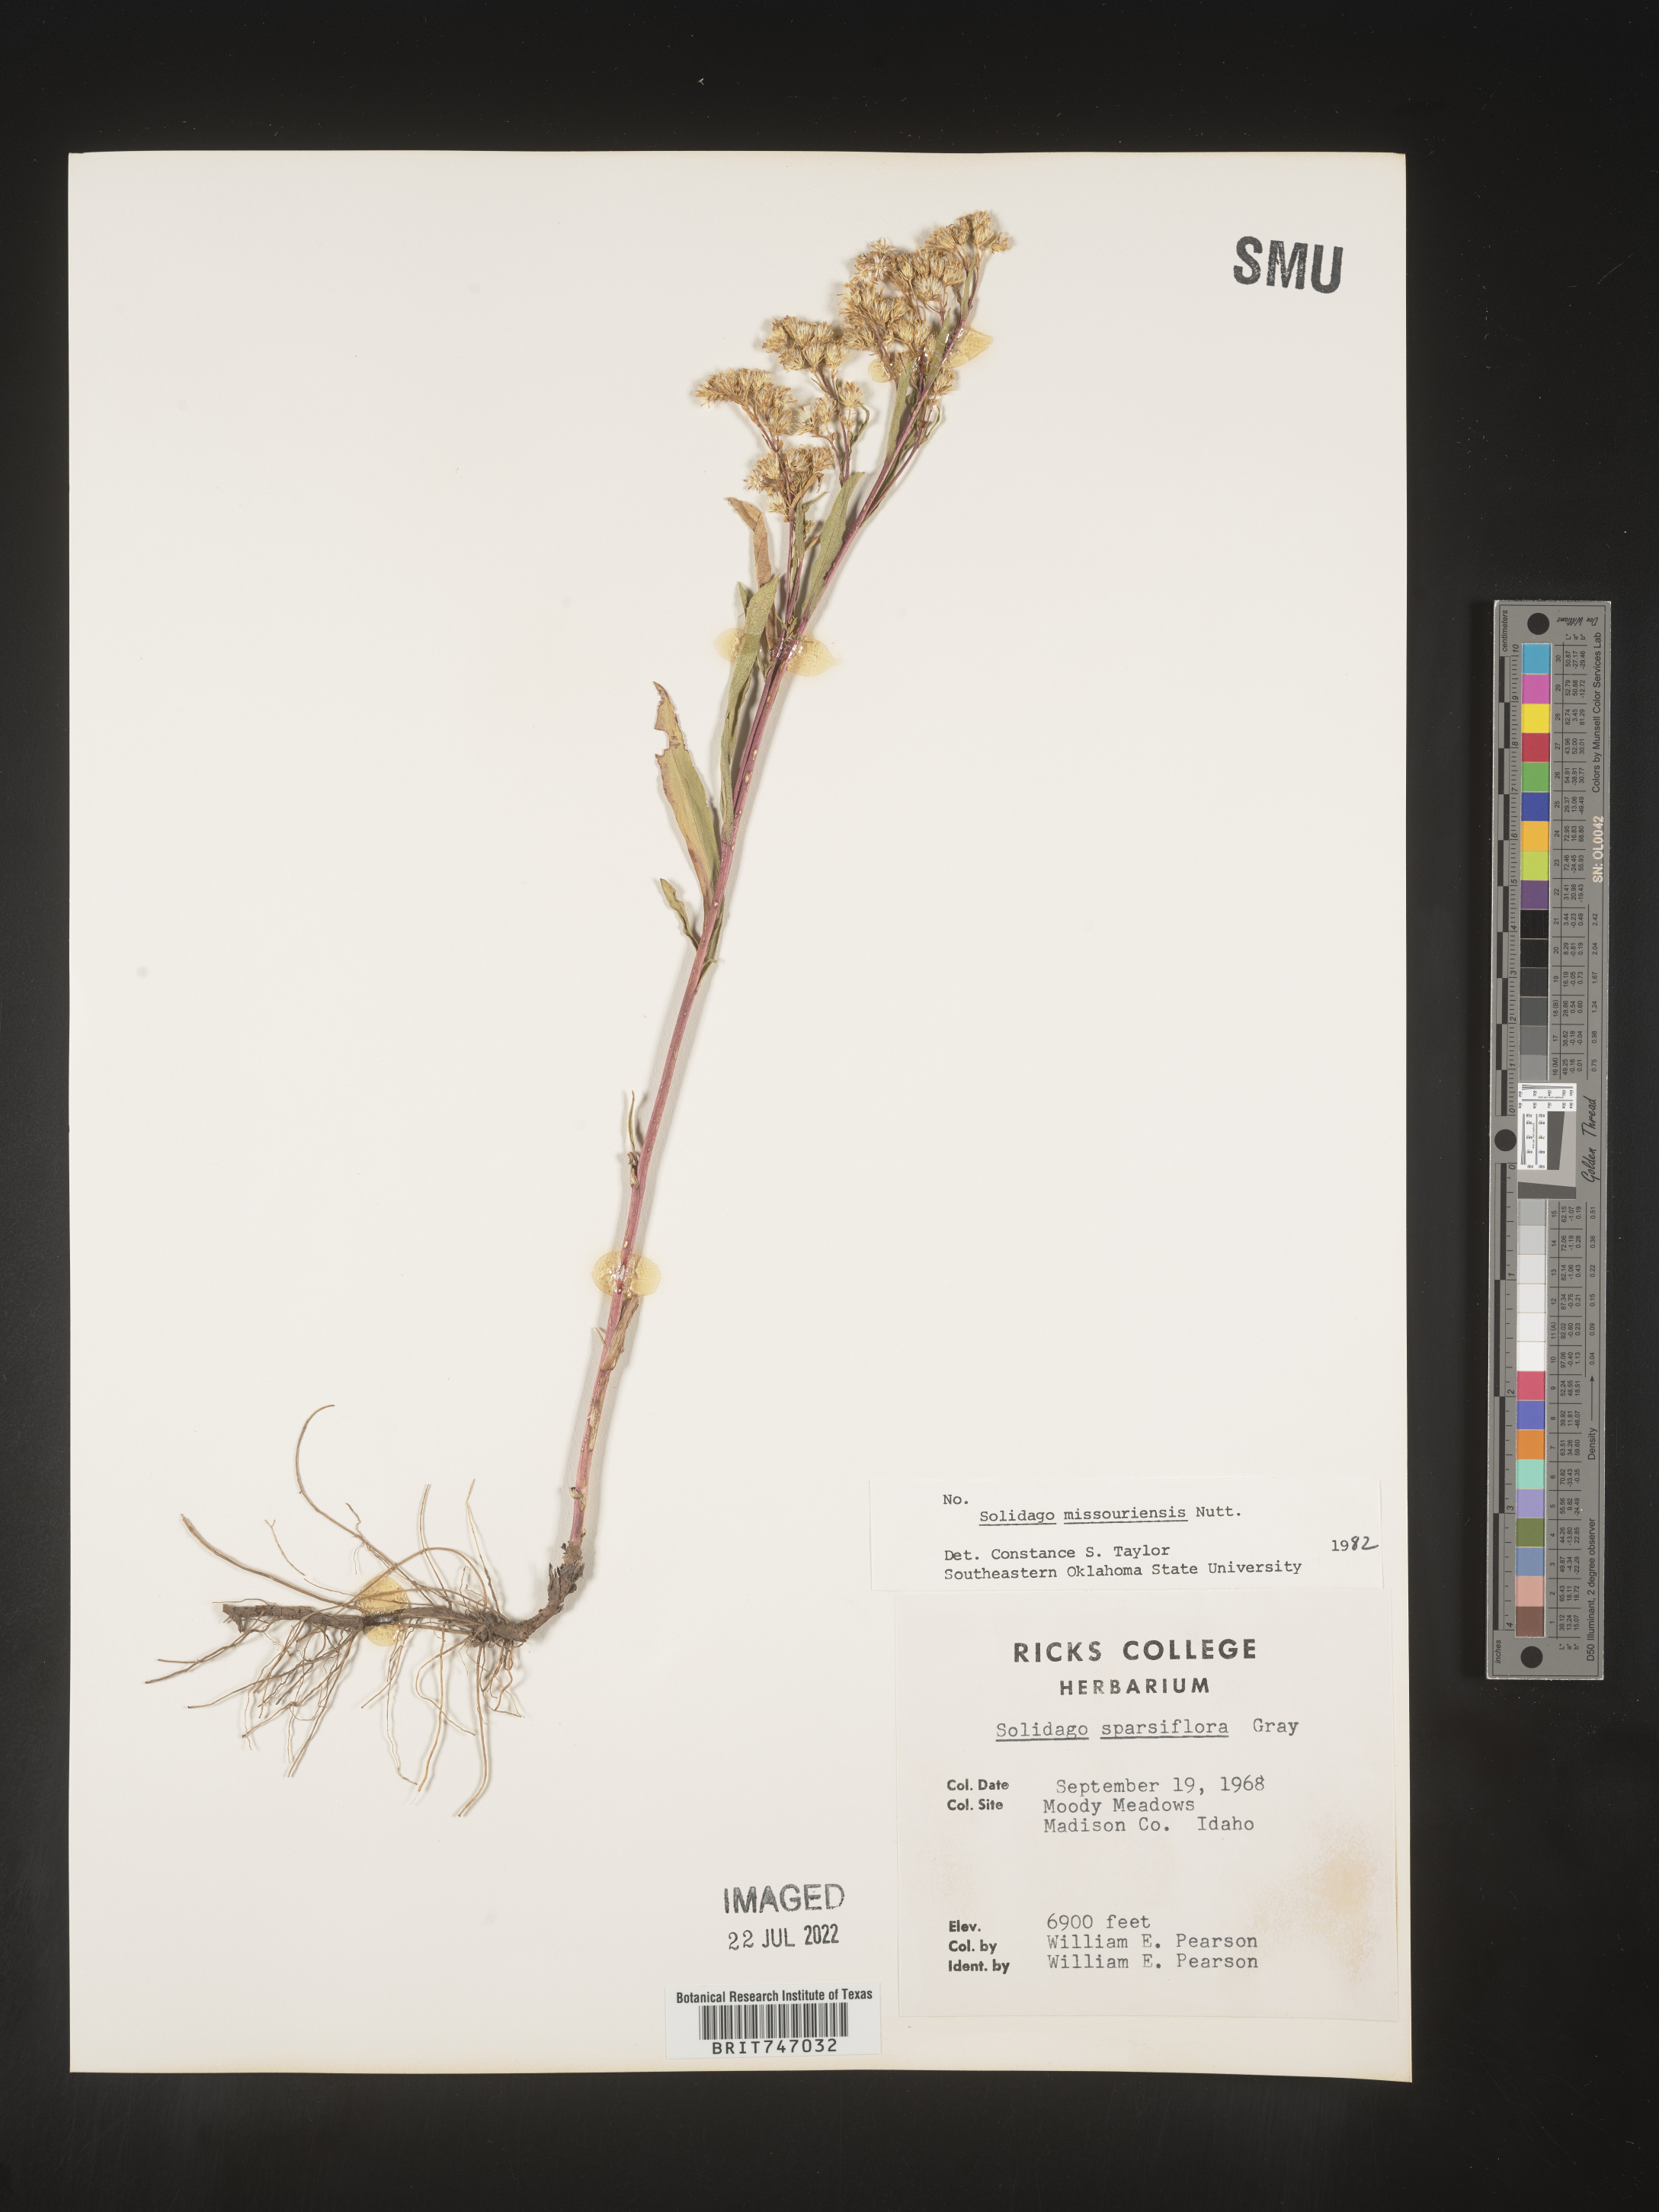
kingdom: Plantae
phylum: Tracheophyta
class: Magnoliopsida
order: Asterales
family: Asteraceae
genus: Solidago
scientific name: Solidago missouriensis
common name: Prairie goldenrod
